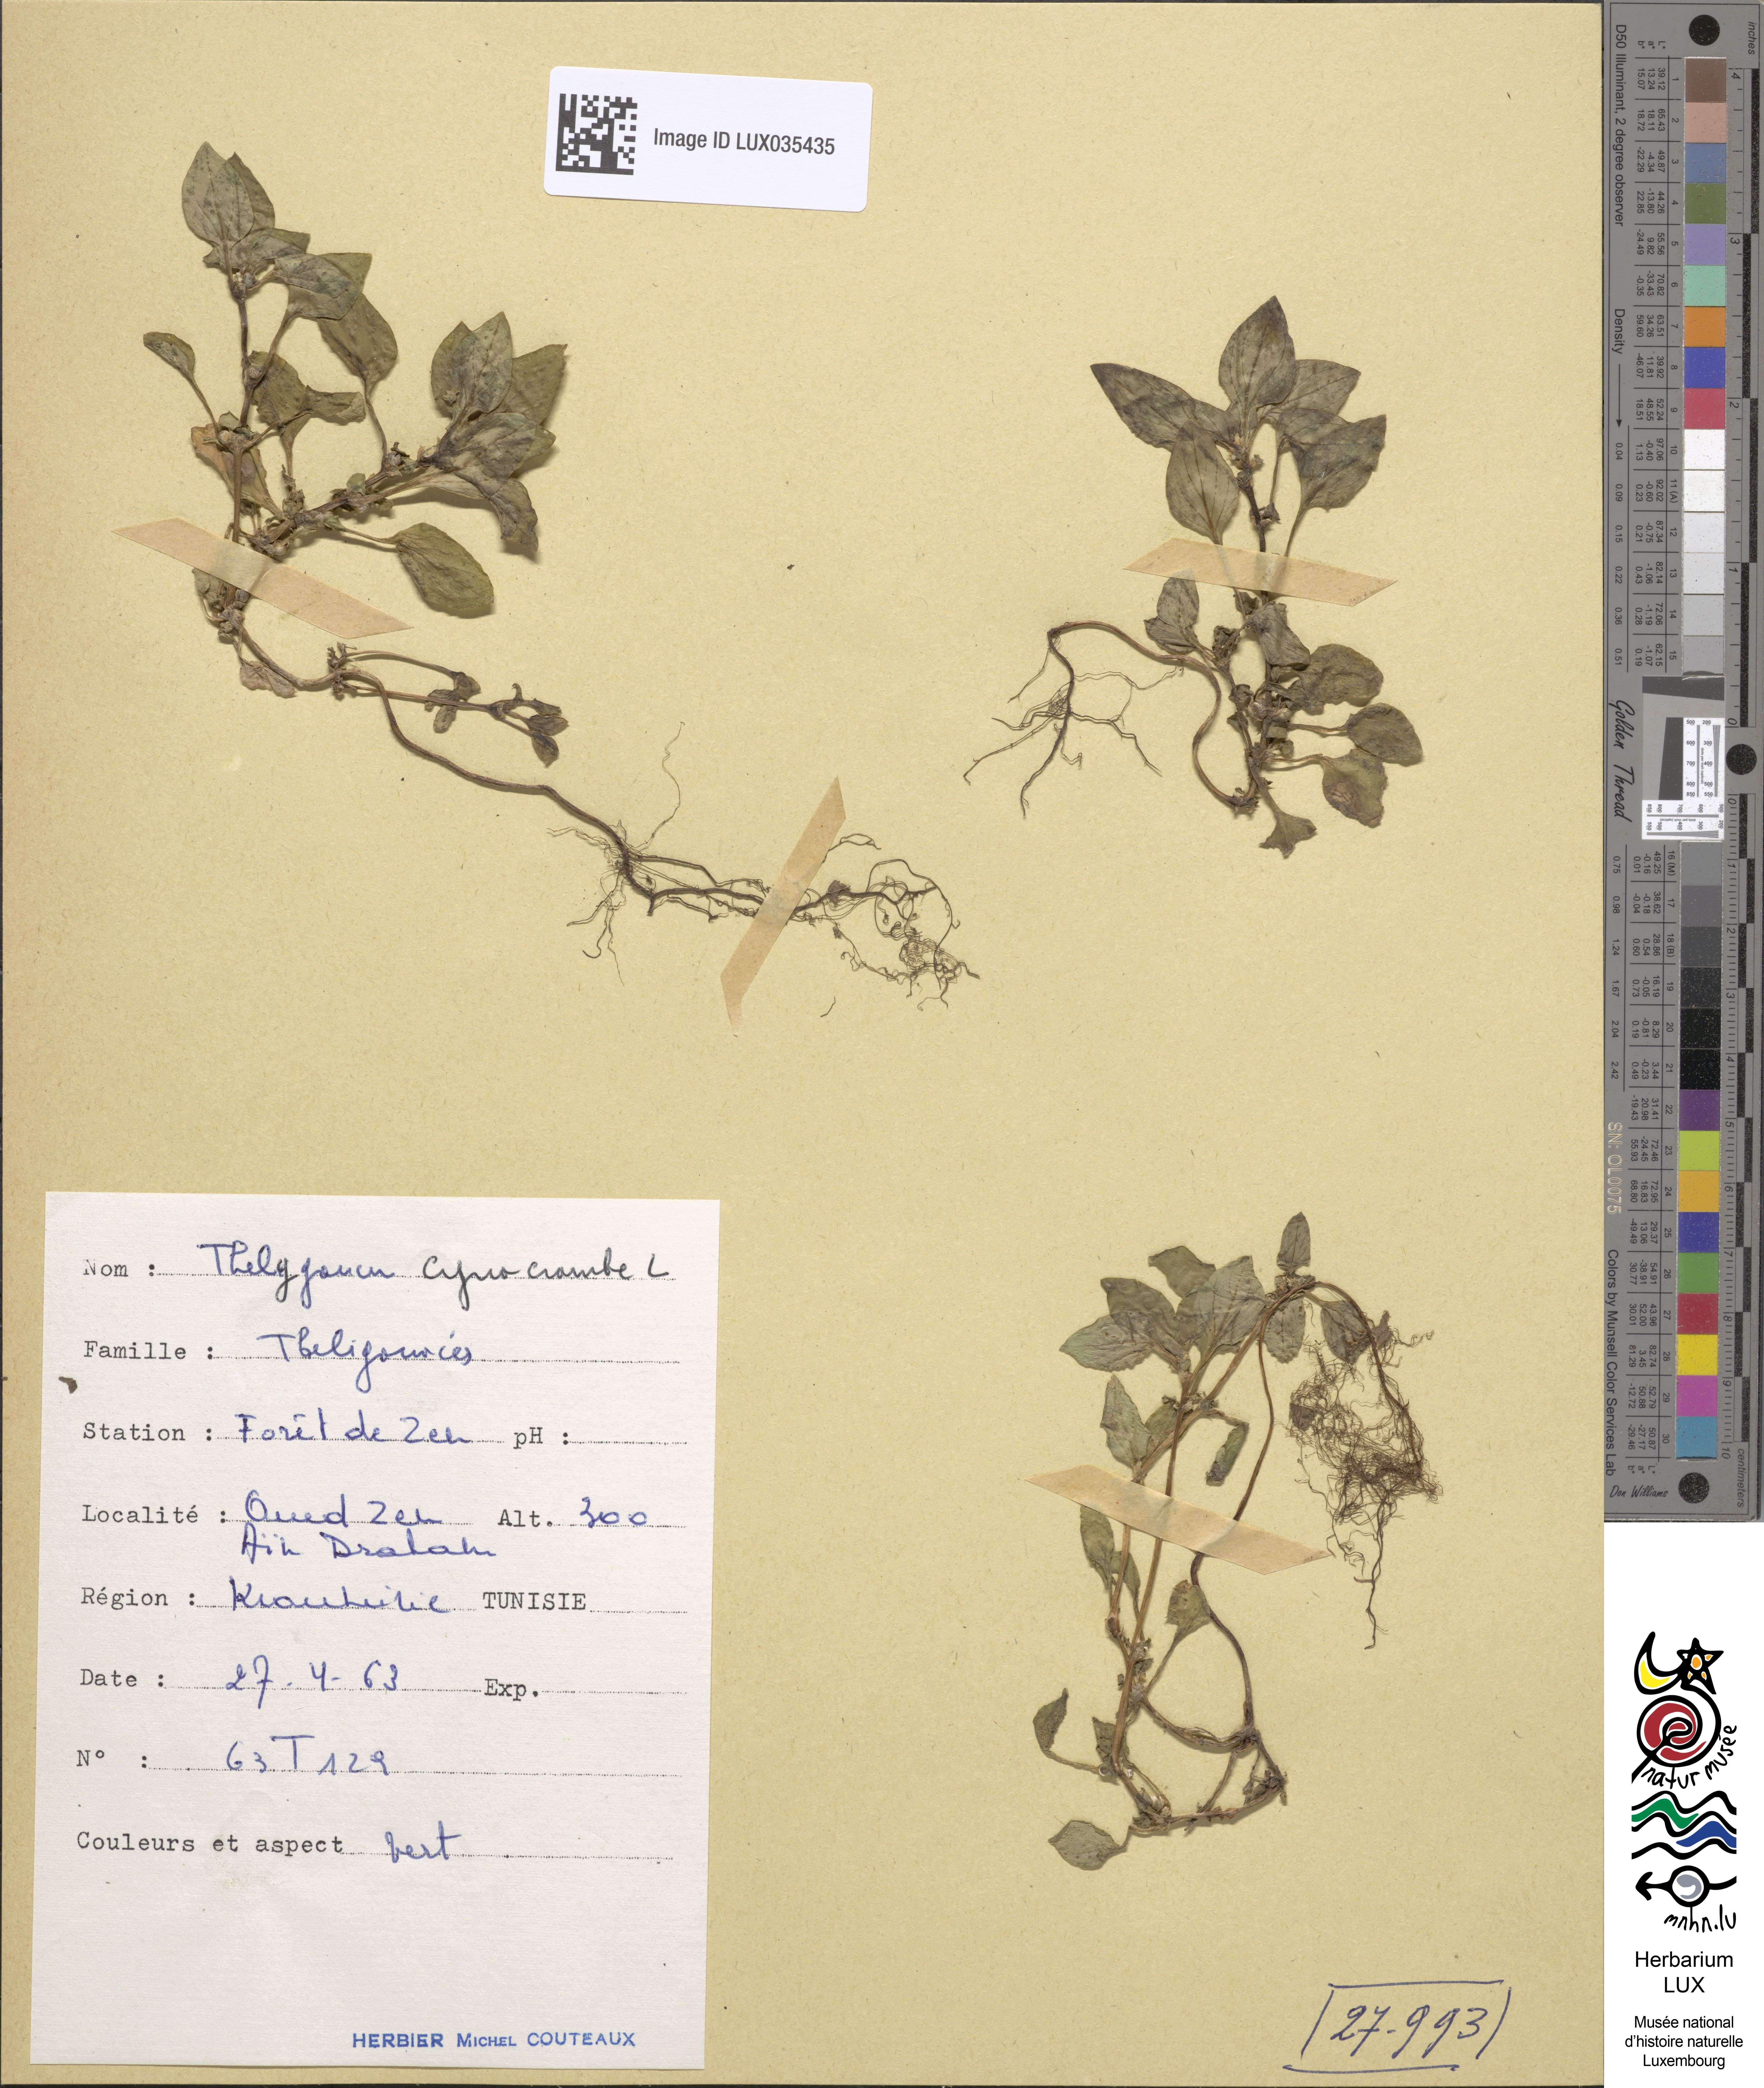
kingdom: Plantae
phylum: Tracheophyta
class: Magnoliopsida
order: Gentianales
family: Rubiaceae
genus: Theligonum
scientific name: Theligonum cynocrambe
